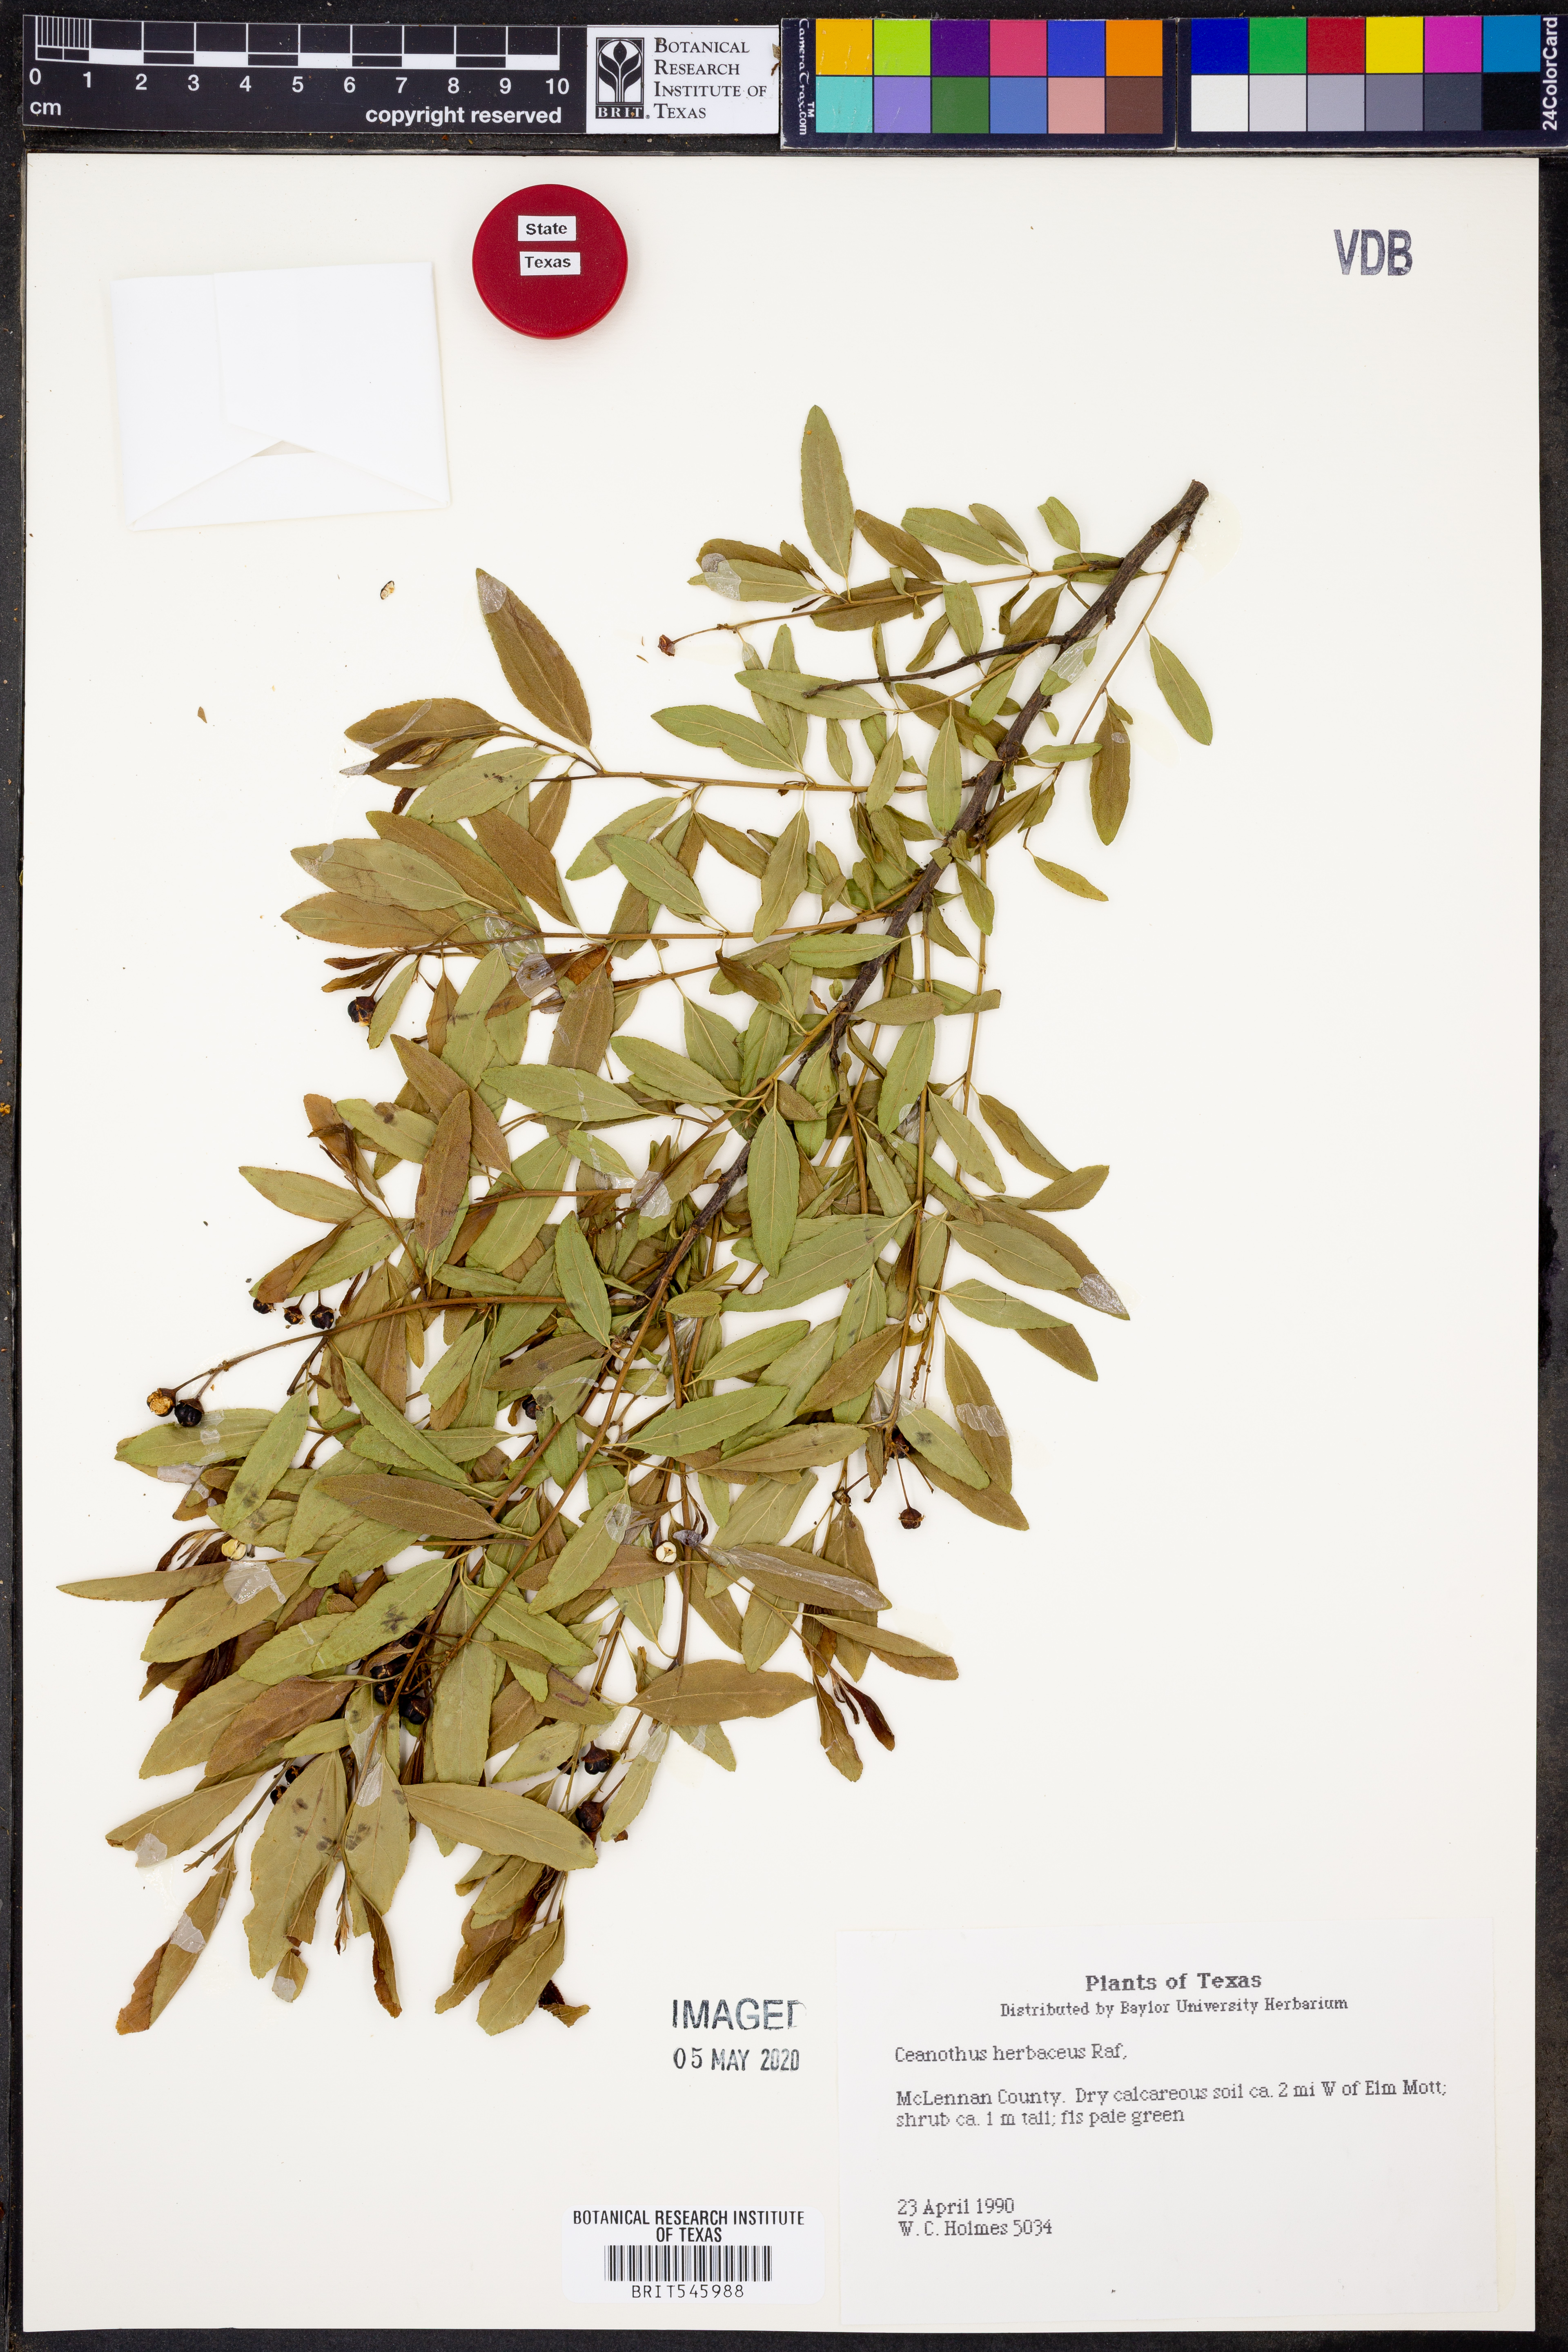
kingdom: Plantae
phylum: Tracheophyta
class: Magnoliopsida
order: Rosales
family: Rhamnaceae
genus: Ceanothus
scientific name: Ceanothus herbaceus
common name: Inland ceanothus
